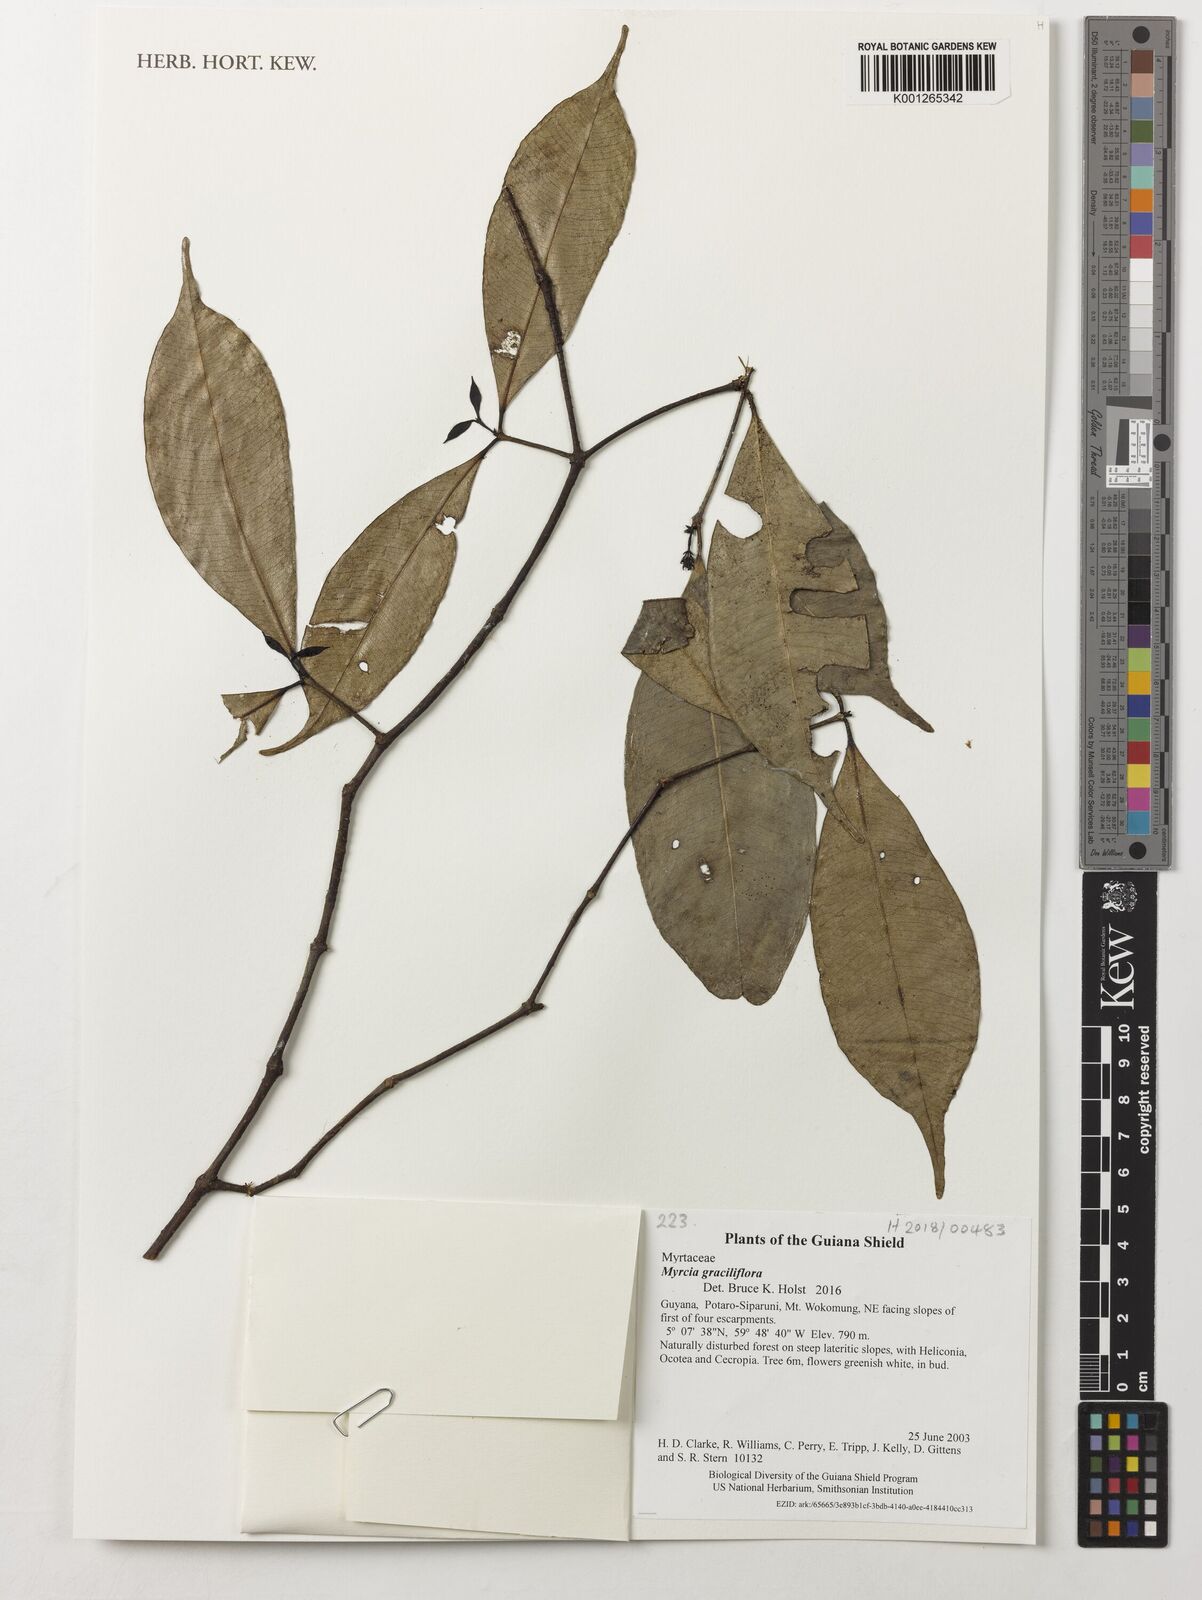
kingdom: Plantae
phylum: Tracheophyta
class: Magnoliopsida
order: Myrtales
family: Myrtaceae
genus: Myrcia
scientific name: Myrcia graciliflora
